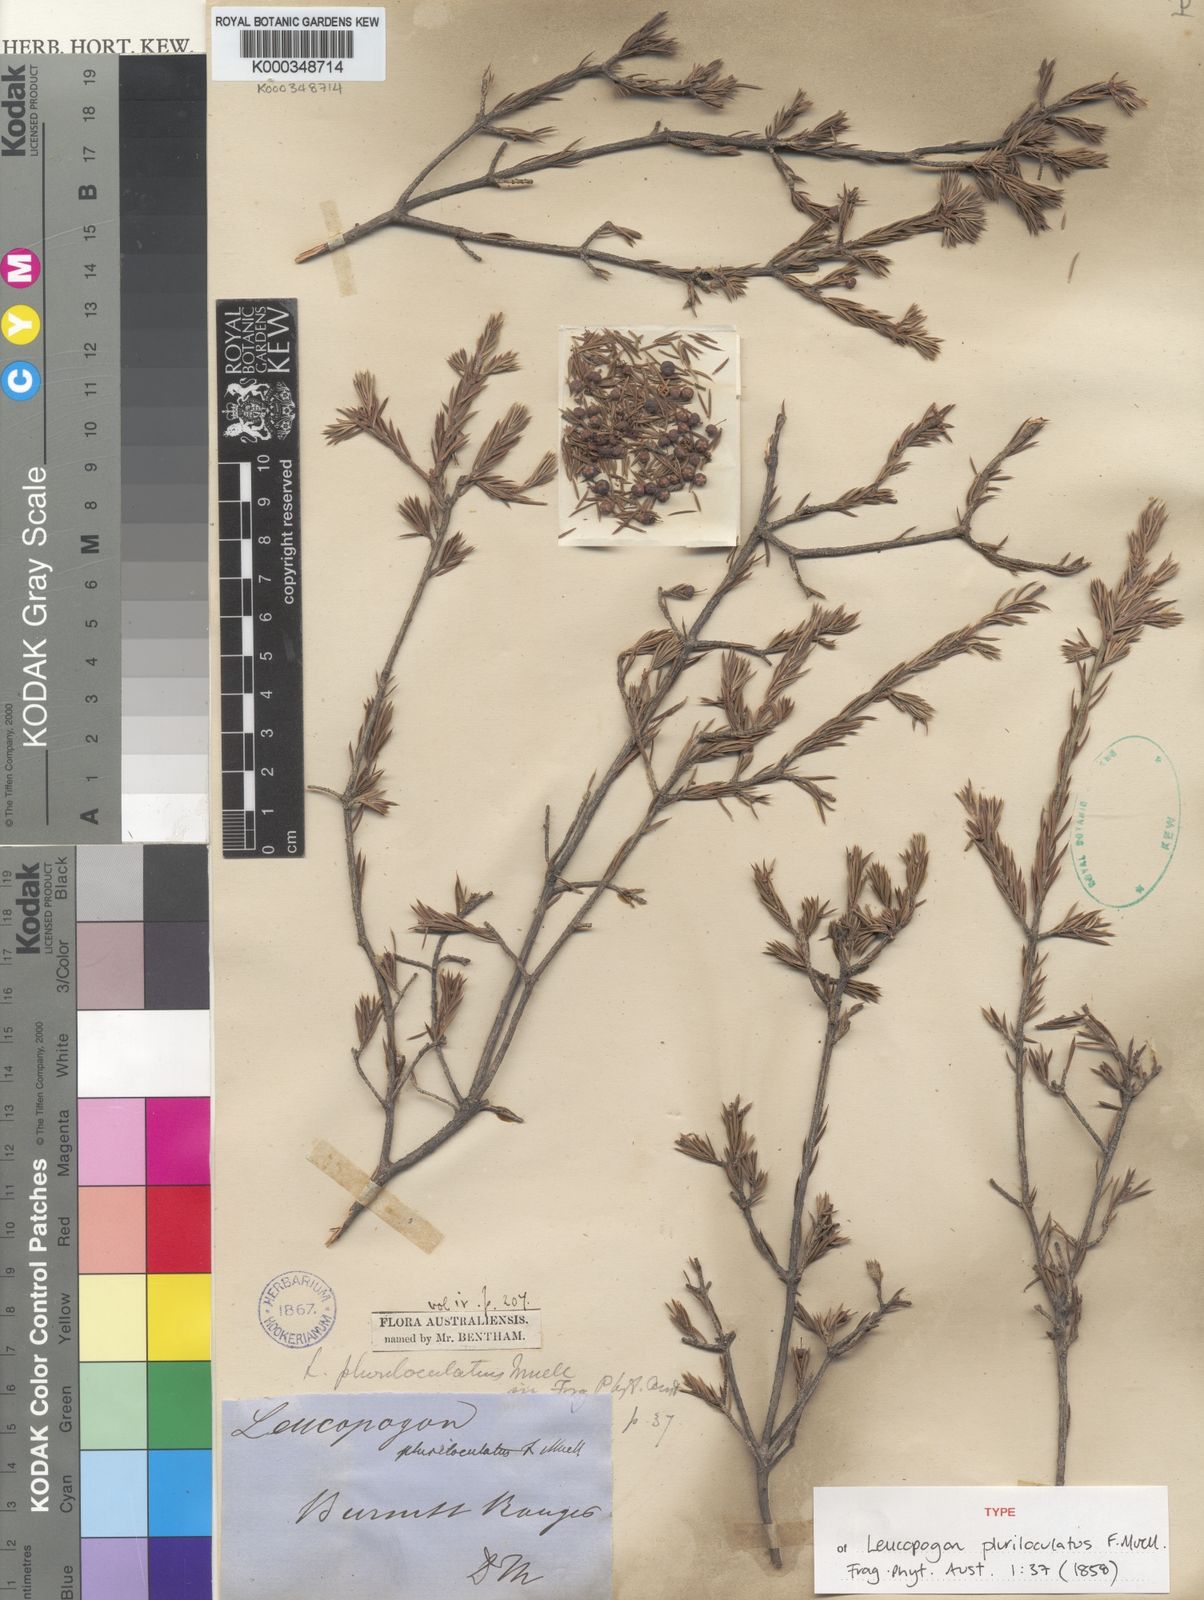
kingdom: Plantae
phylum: Tracheophyta
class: Magnoliopsida
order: Ericales
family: Ericaceae
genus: Lissanthe
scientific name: Lissanthe pluriloculata
